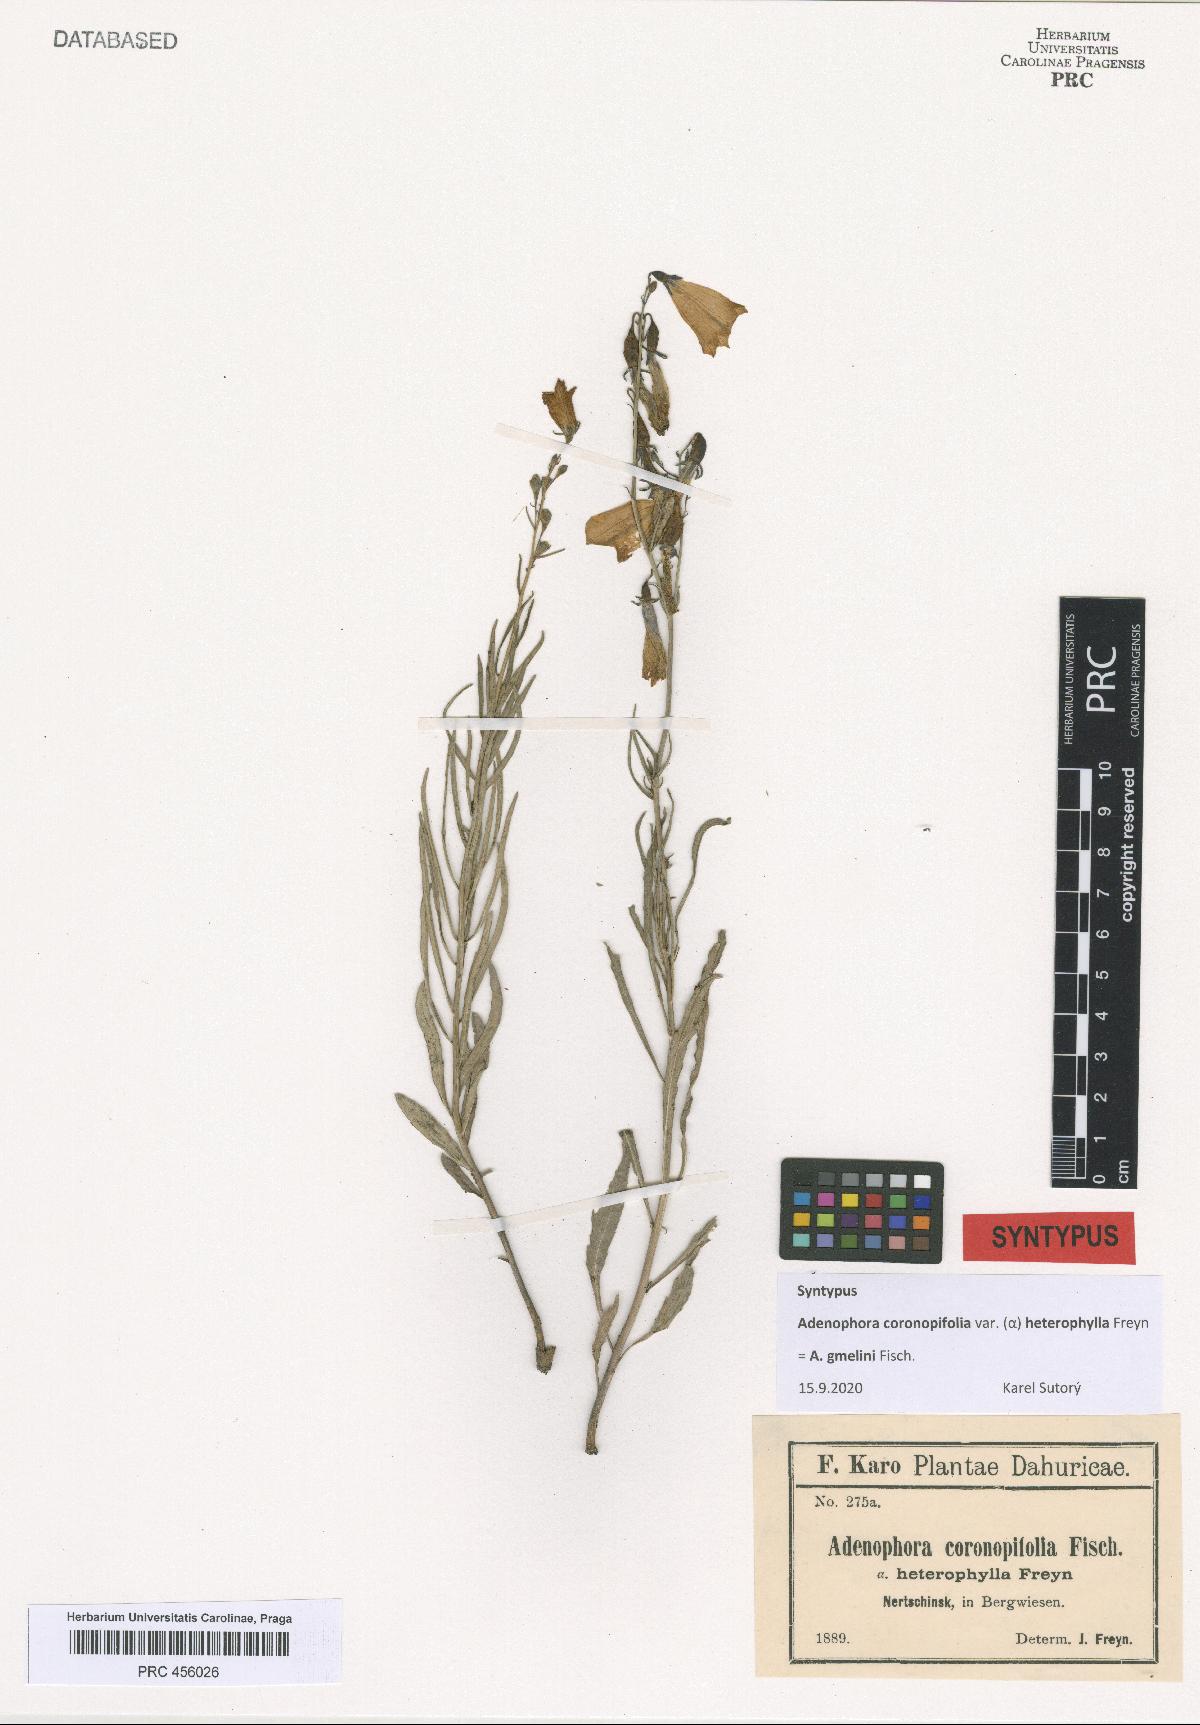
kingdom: Plantae
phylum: Tracheophyta
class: Magnoliopsida
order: Asterales
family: Campanulaceae
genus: Adenophora
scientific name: Adenophora gmelinii
